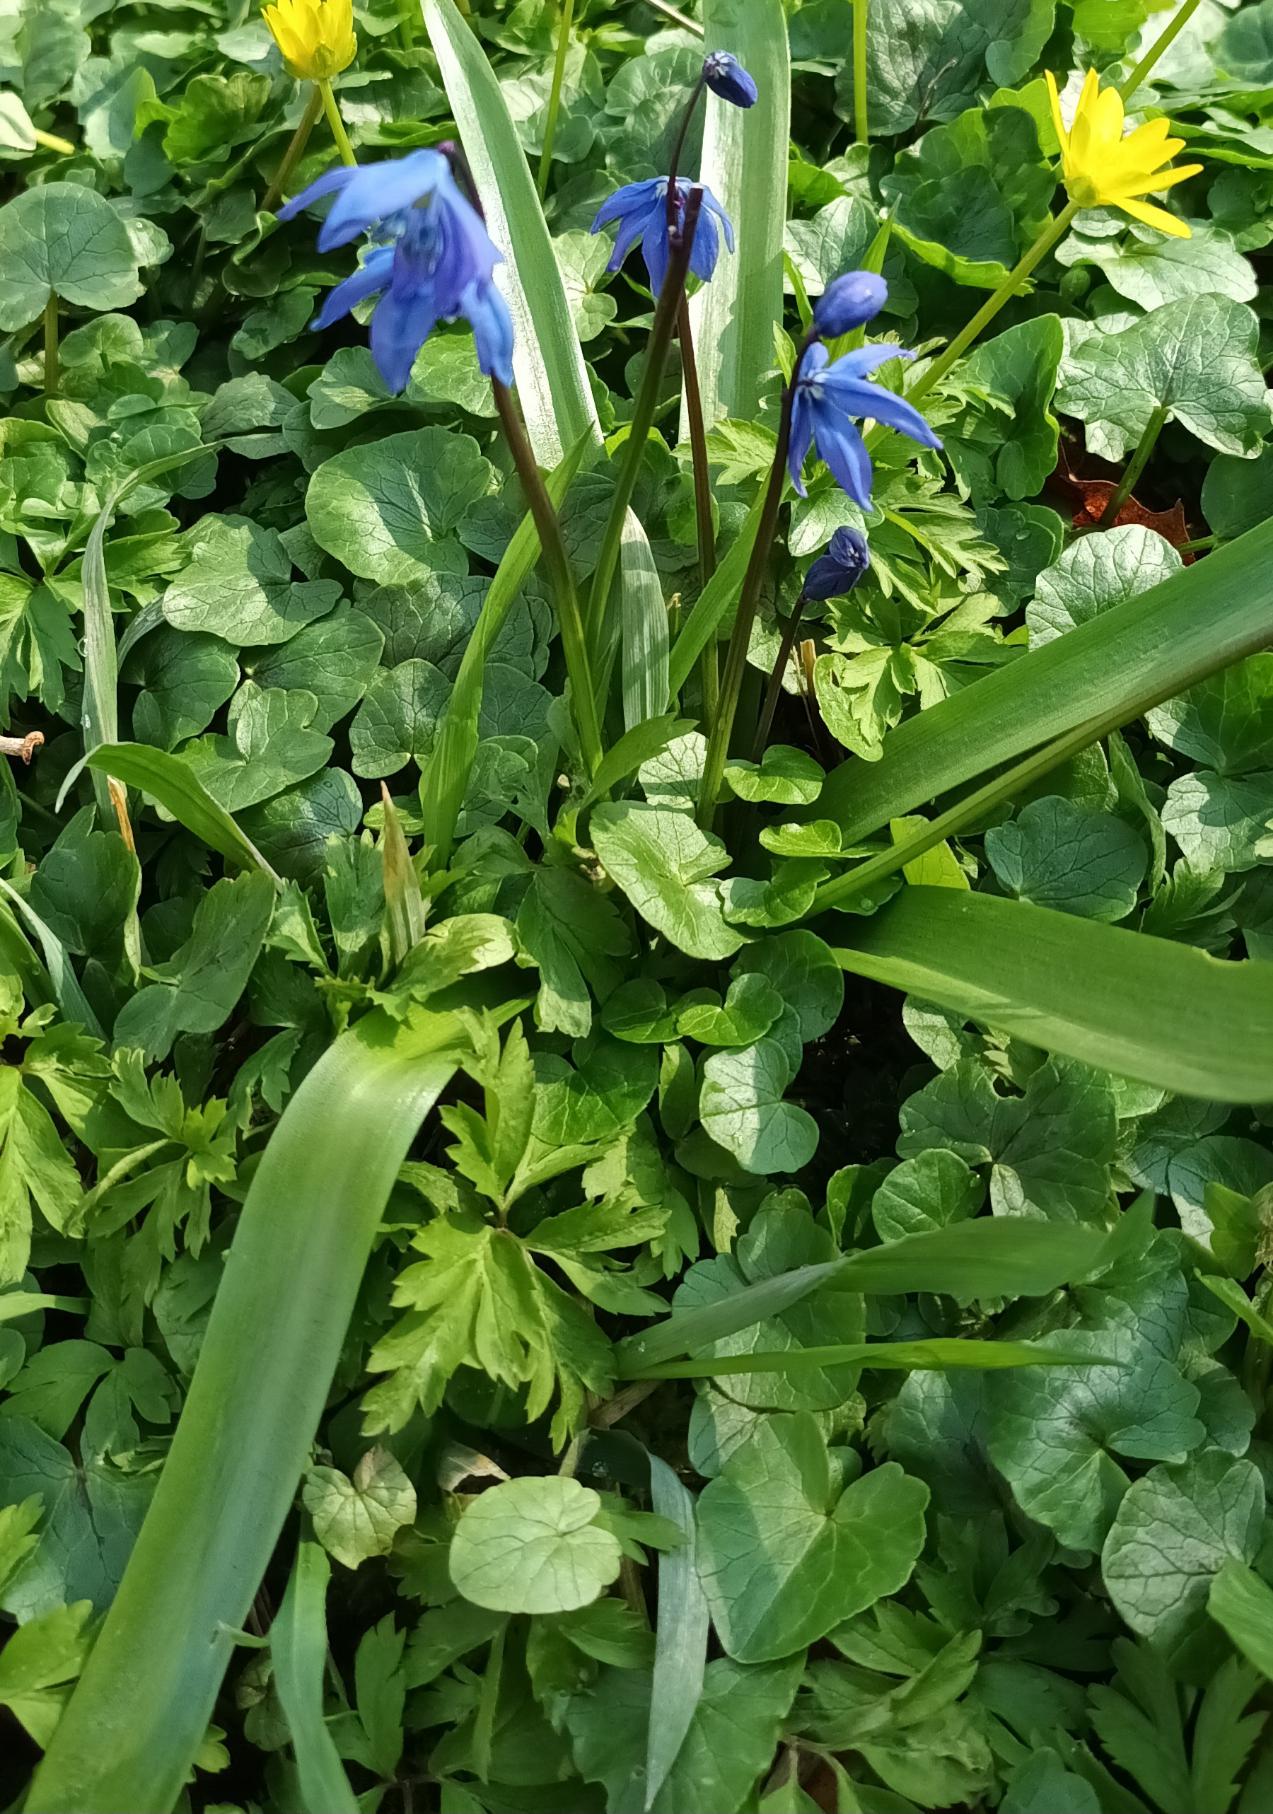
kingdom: Plantae
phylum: Tracheophyta
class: Liliopsida
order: Asparagales
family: Asparagaceae
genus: Scilla
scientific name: Scilla siberica
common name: Russisk skilla
